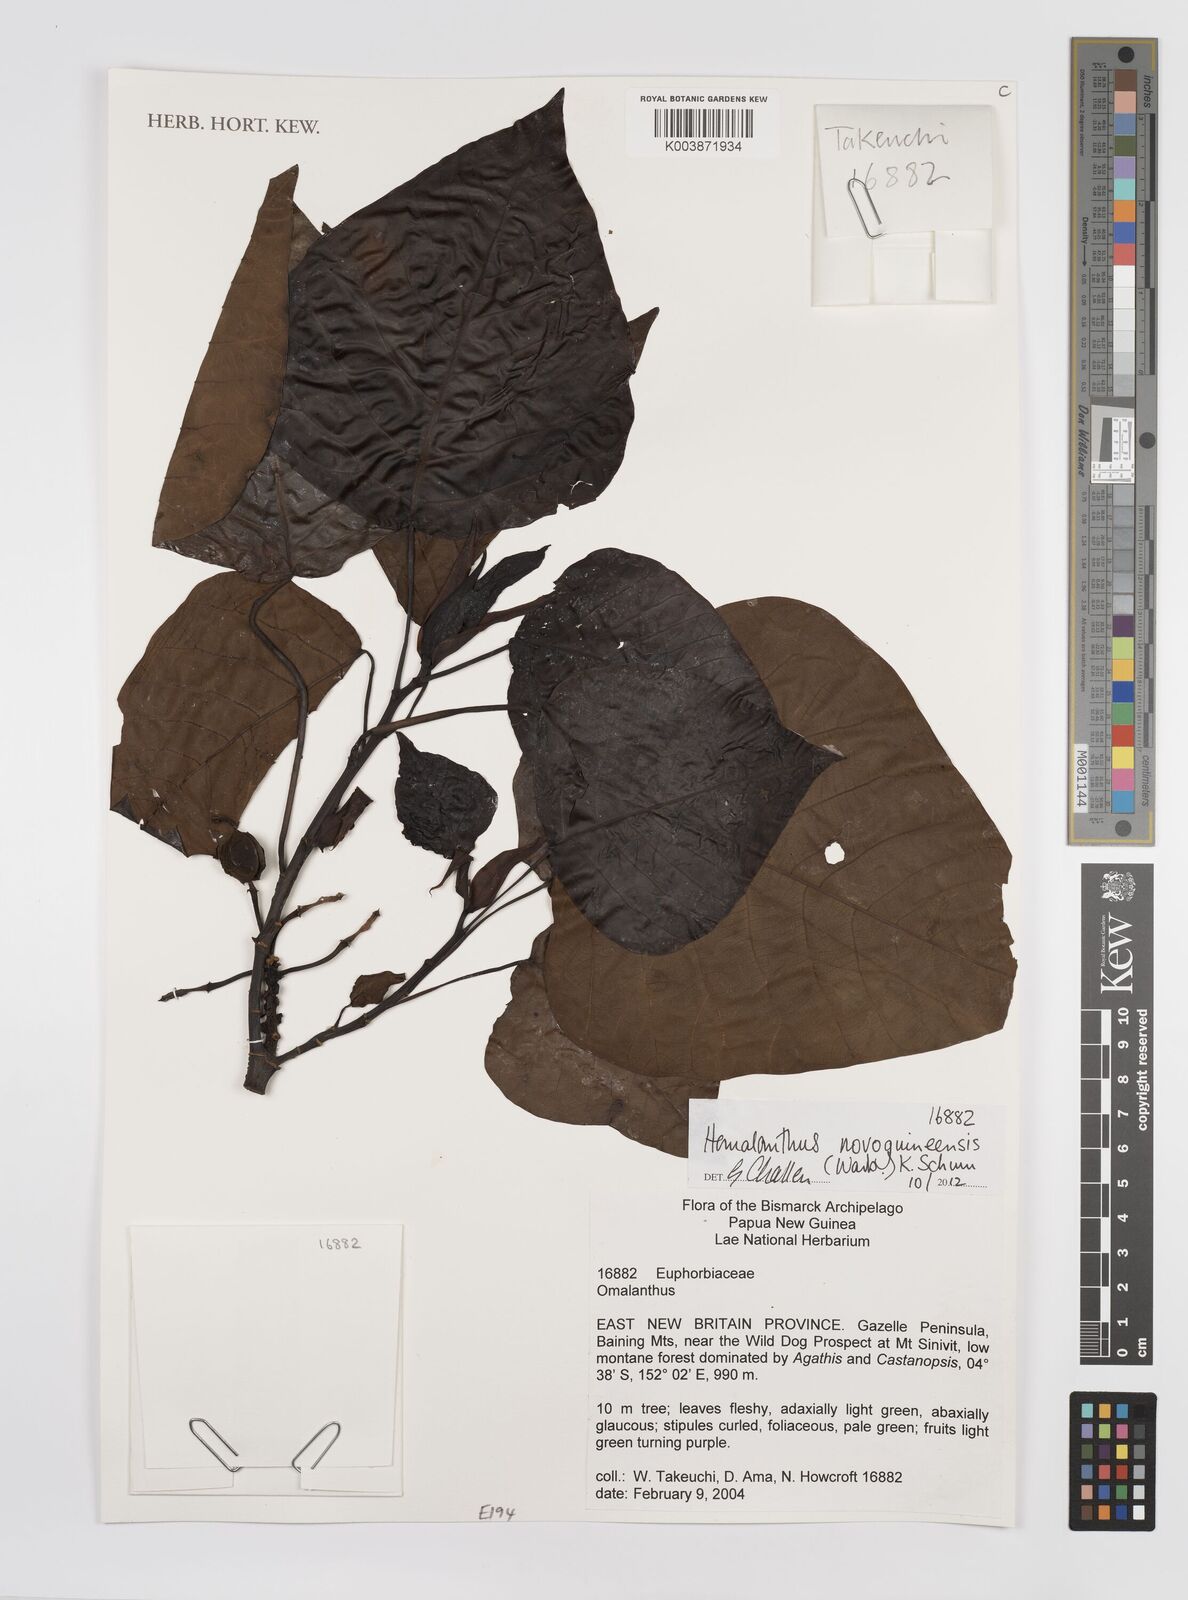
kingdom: Plantae
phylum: Tracheophyta
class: Magnoliopsida
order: Malpighiales
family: Euphorbiaceae
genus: Homalanthus
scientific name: Homalanthus novoguineensis
